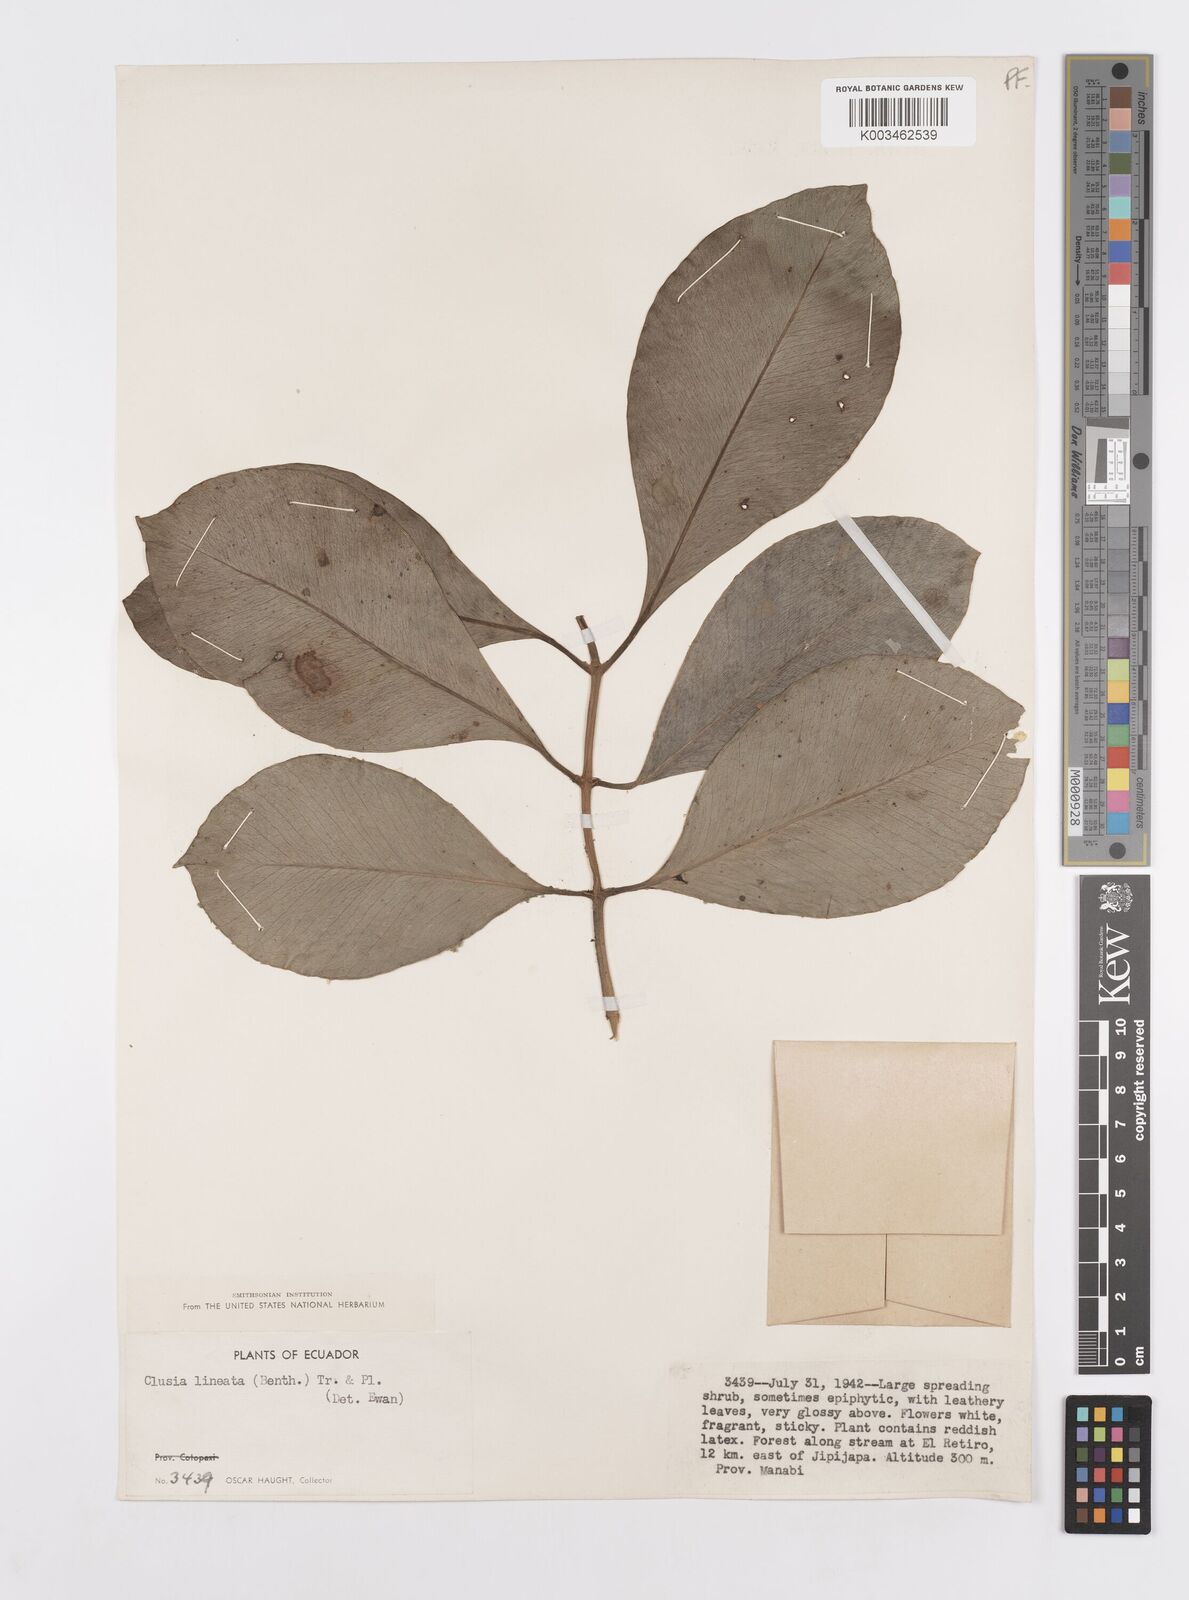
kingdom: Plantae
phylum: Tracheophyta
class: Magnoliopsida
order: Malpighiales
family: Clusiaceae
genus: Clusia
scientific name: Clusia lineata
